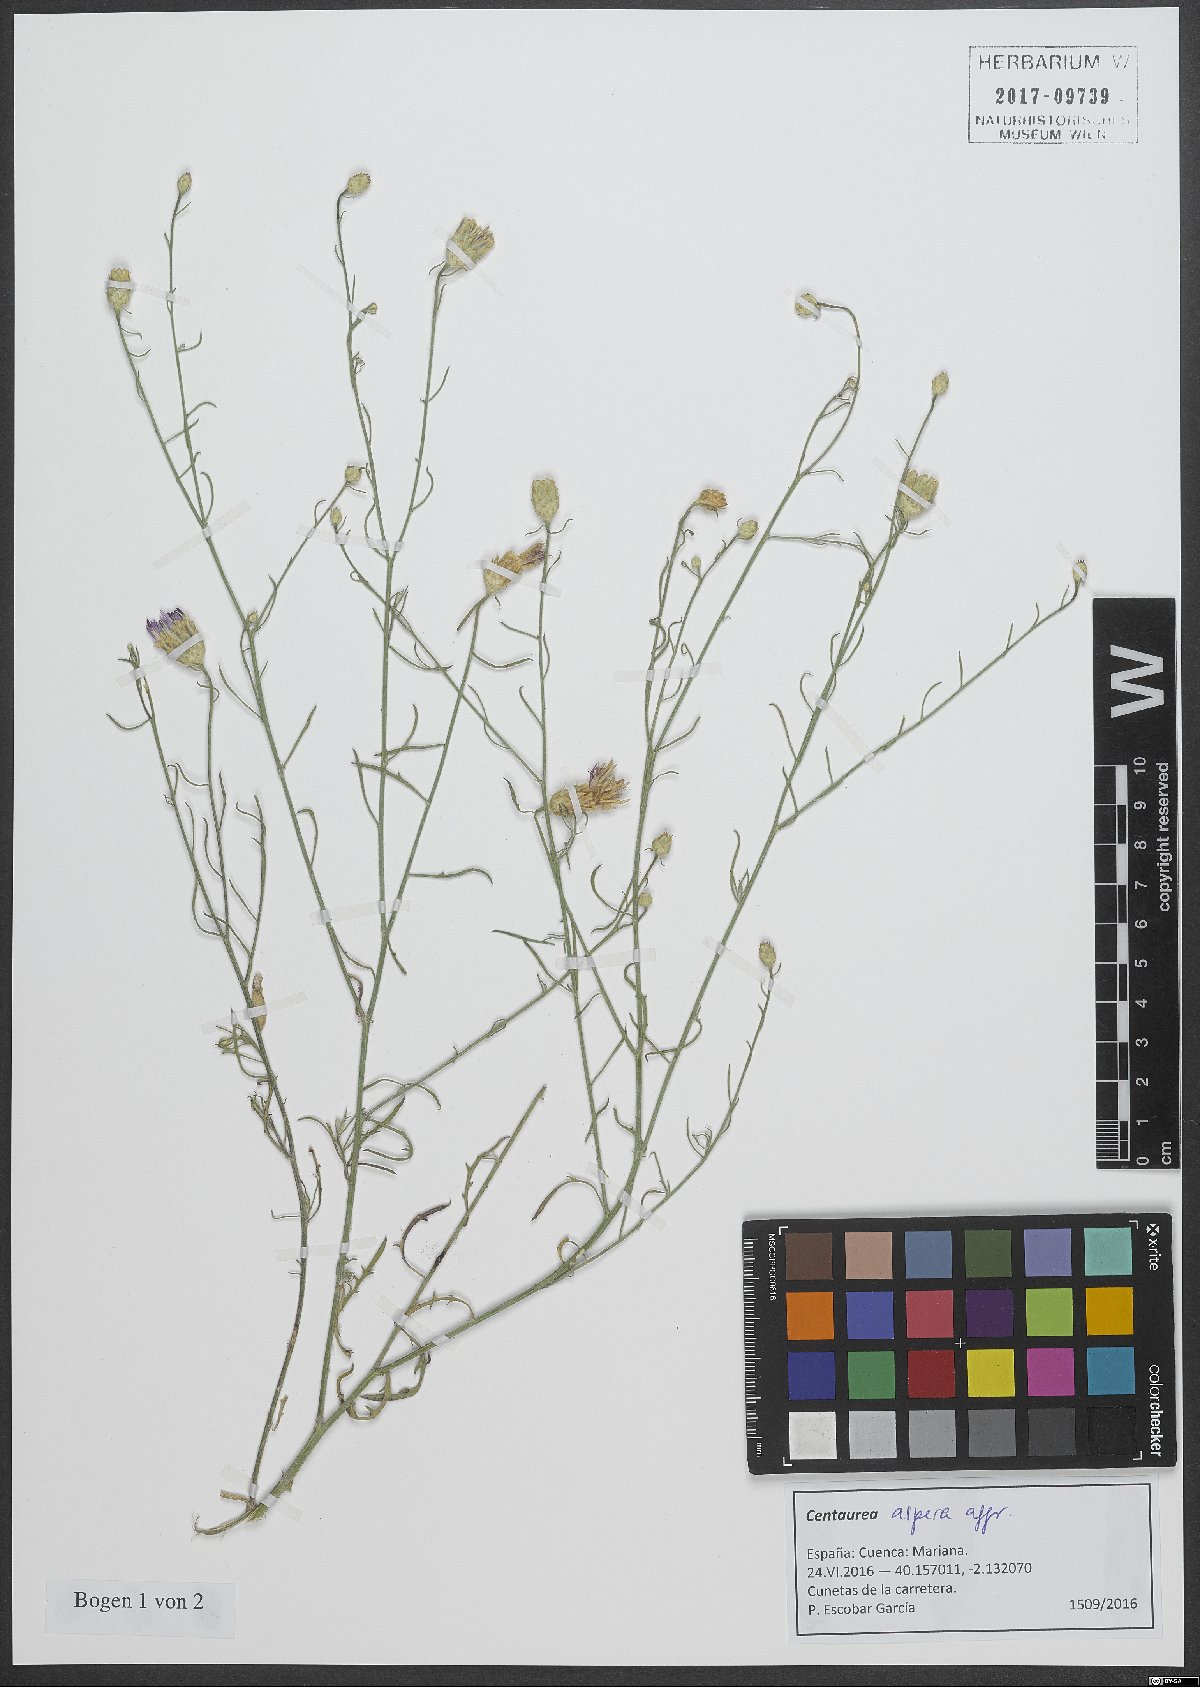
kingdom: Plantae
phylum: Tracheophyta
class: Magnoliopsida
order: Asterales
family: Asteraceae
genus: Centaurea
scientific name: Centaurea aspera
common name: Rough star-thistle
